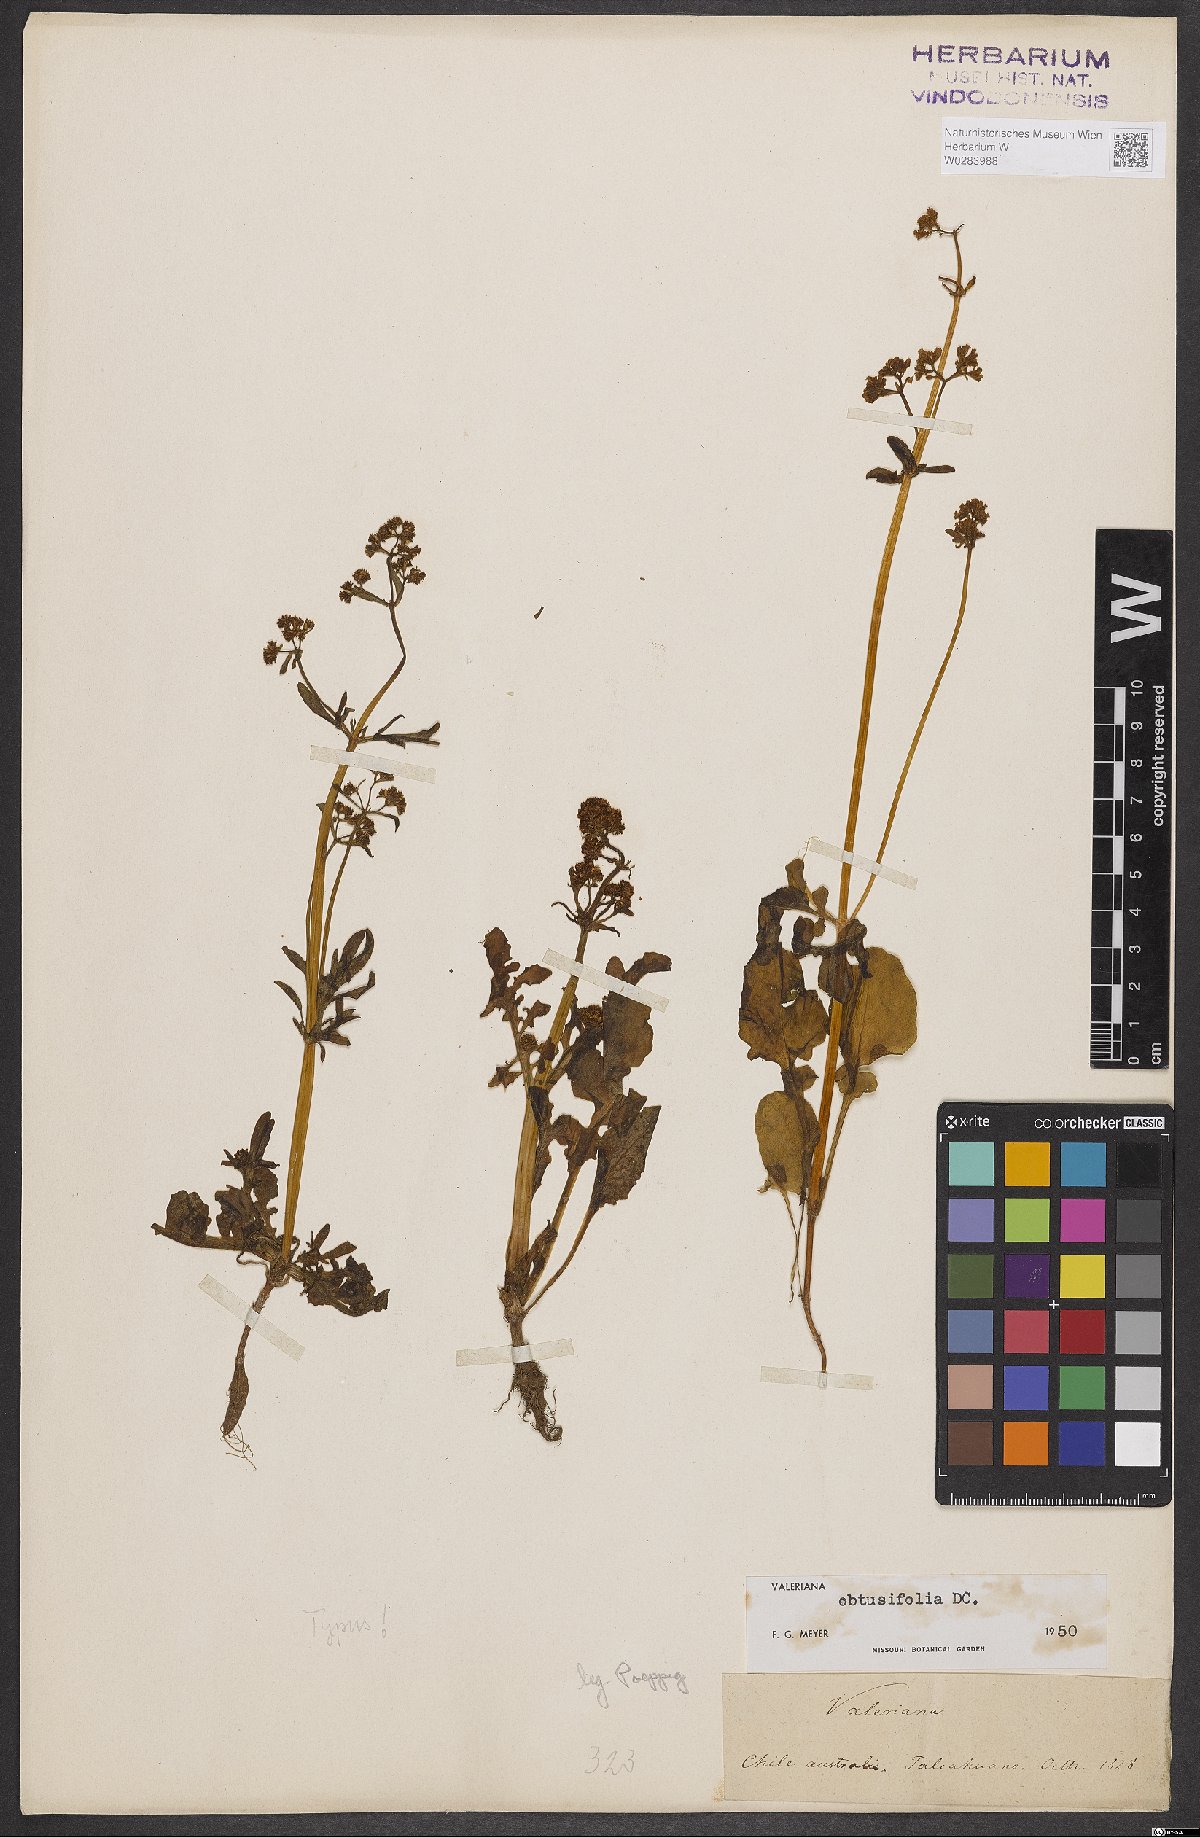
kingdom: Plantae
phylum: Tracheophyta
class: Magnoliopsida
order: Dipsacales
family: Caprifoliaceae
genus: Valeriana
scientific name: Valeriana obtusifolia
